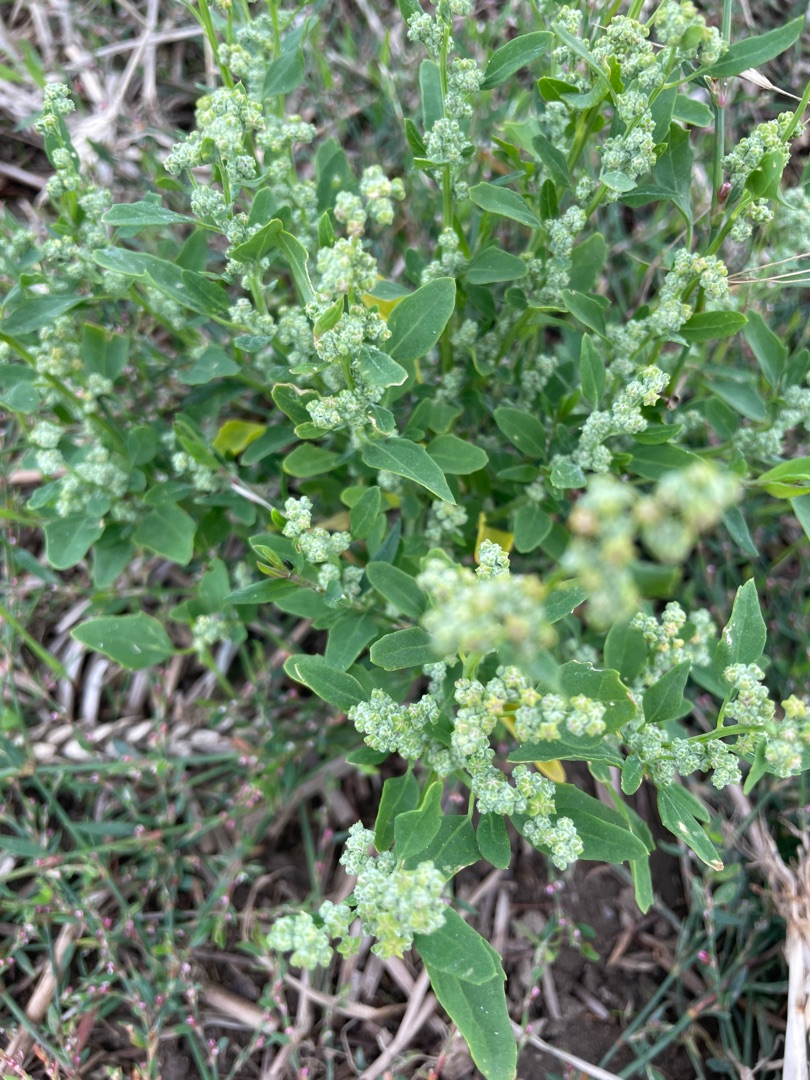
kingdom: Plantae
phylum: Tracheophyta
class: Magnoliopsida
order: Caryophyllales
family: Amaranthaceae
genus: Chenopodium
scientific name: Chenopodium album
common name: Hvidmelet gåsefod
